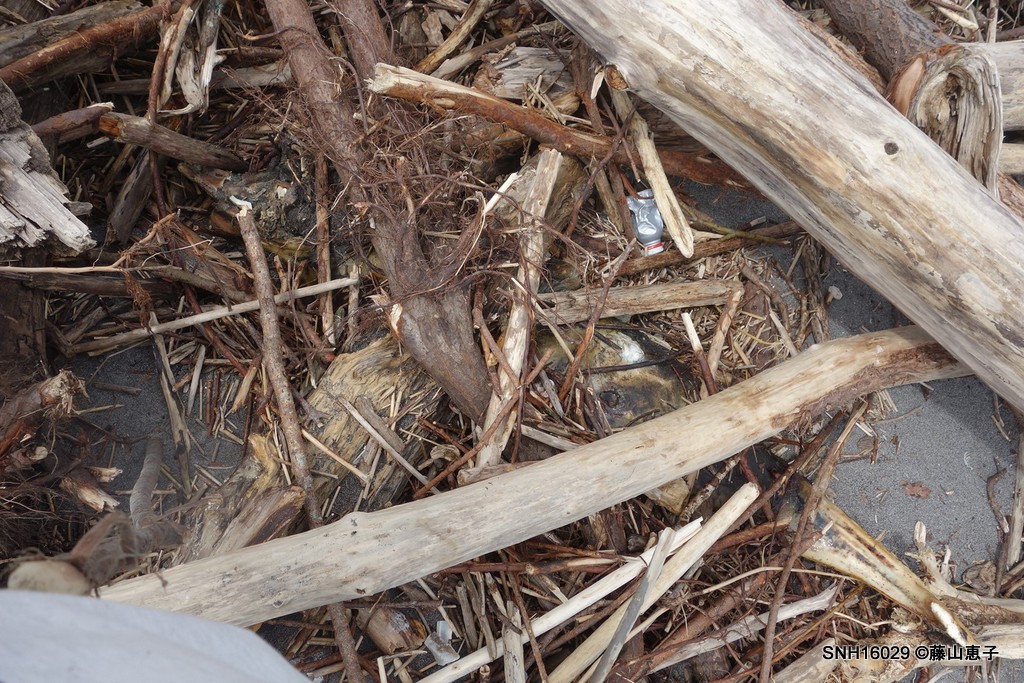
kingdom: Animalia
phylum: Chordata
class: Mammalia
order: Cetacea
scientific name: Cetacea
